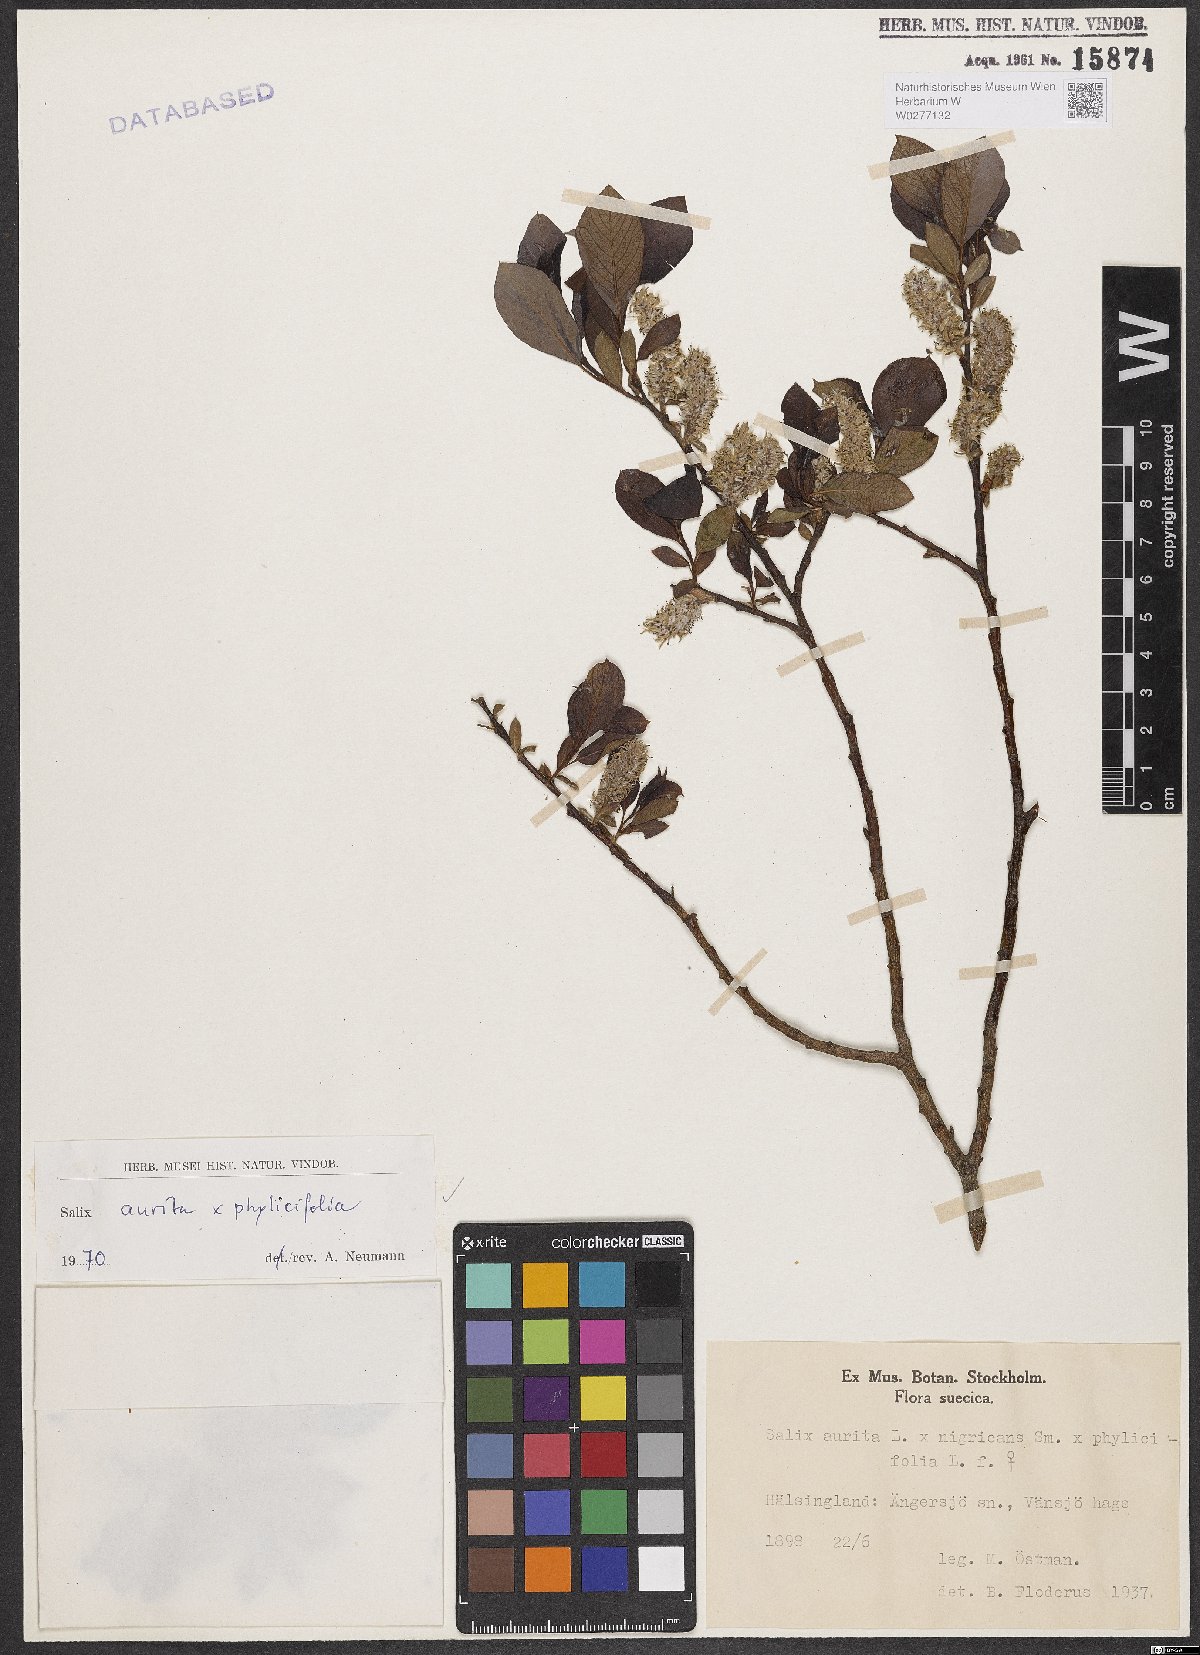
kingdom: Plantae
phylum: Tracheophyta
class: Magnoliopsida
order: Malpighiales
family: Salicaceae
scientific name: Salicaceae
